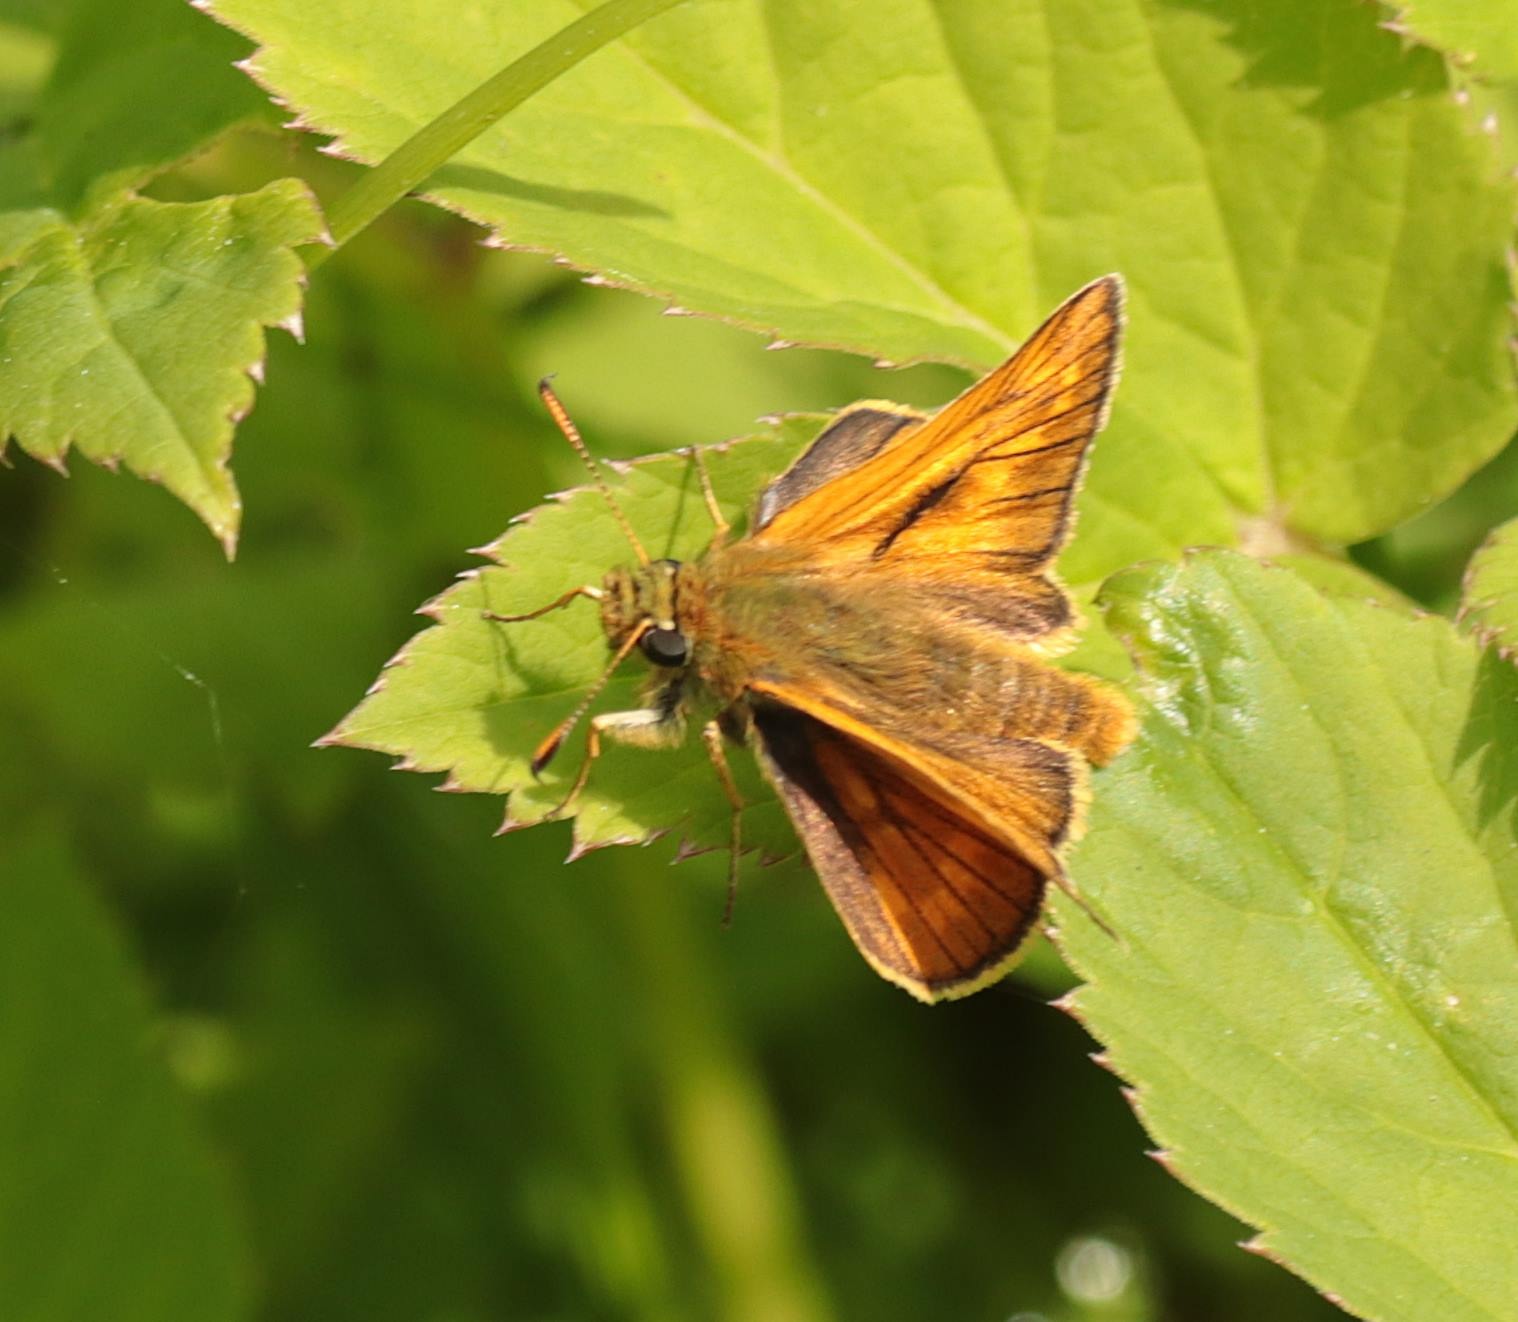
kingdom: Animalia
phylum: Arthropoda
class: Insecta
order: Lepidoptera
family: Hesperiidae
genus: Ochlodes
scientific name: Ochlodes venata
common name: Stor bredpande
